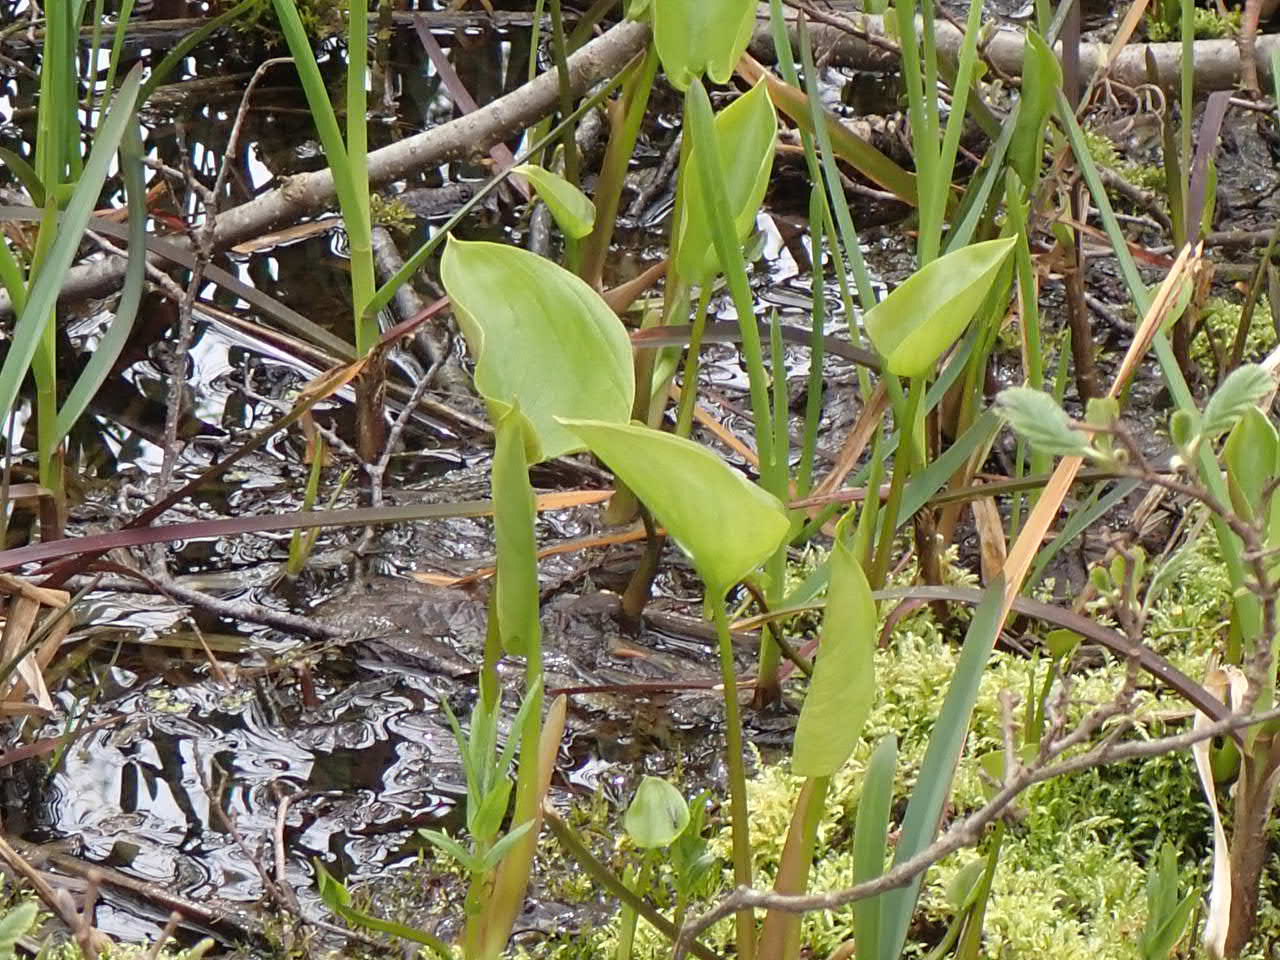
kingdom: Plantae
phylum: Tracheophyta
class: Liliopsida
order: Alismatales
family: Araceae
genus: Calla
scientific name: Calla palustris
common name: Kærmysse
